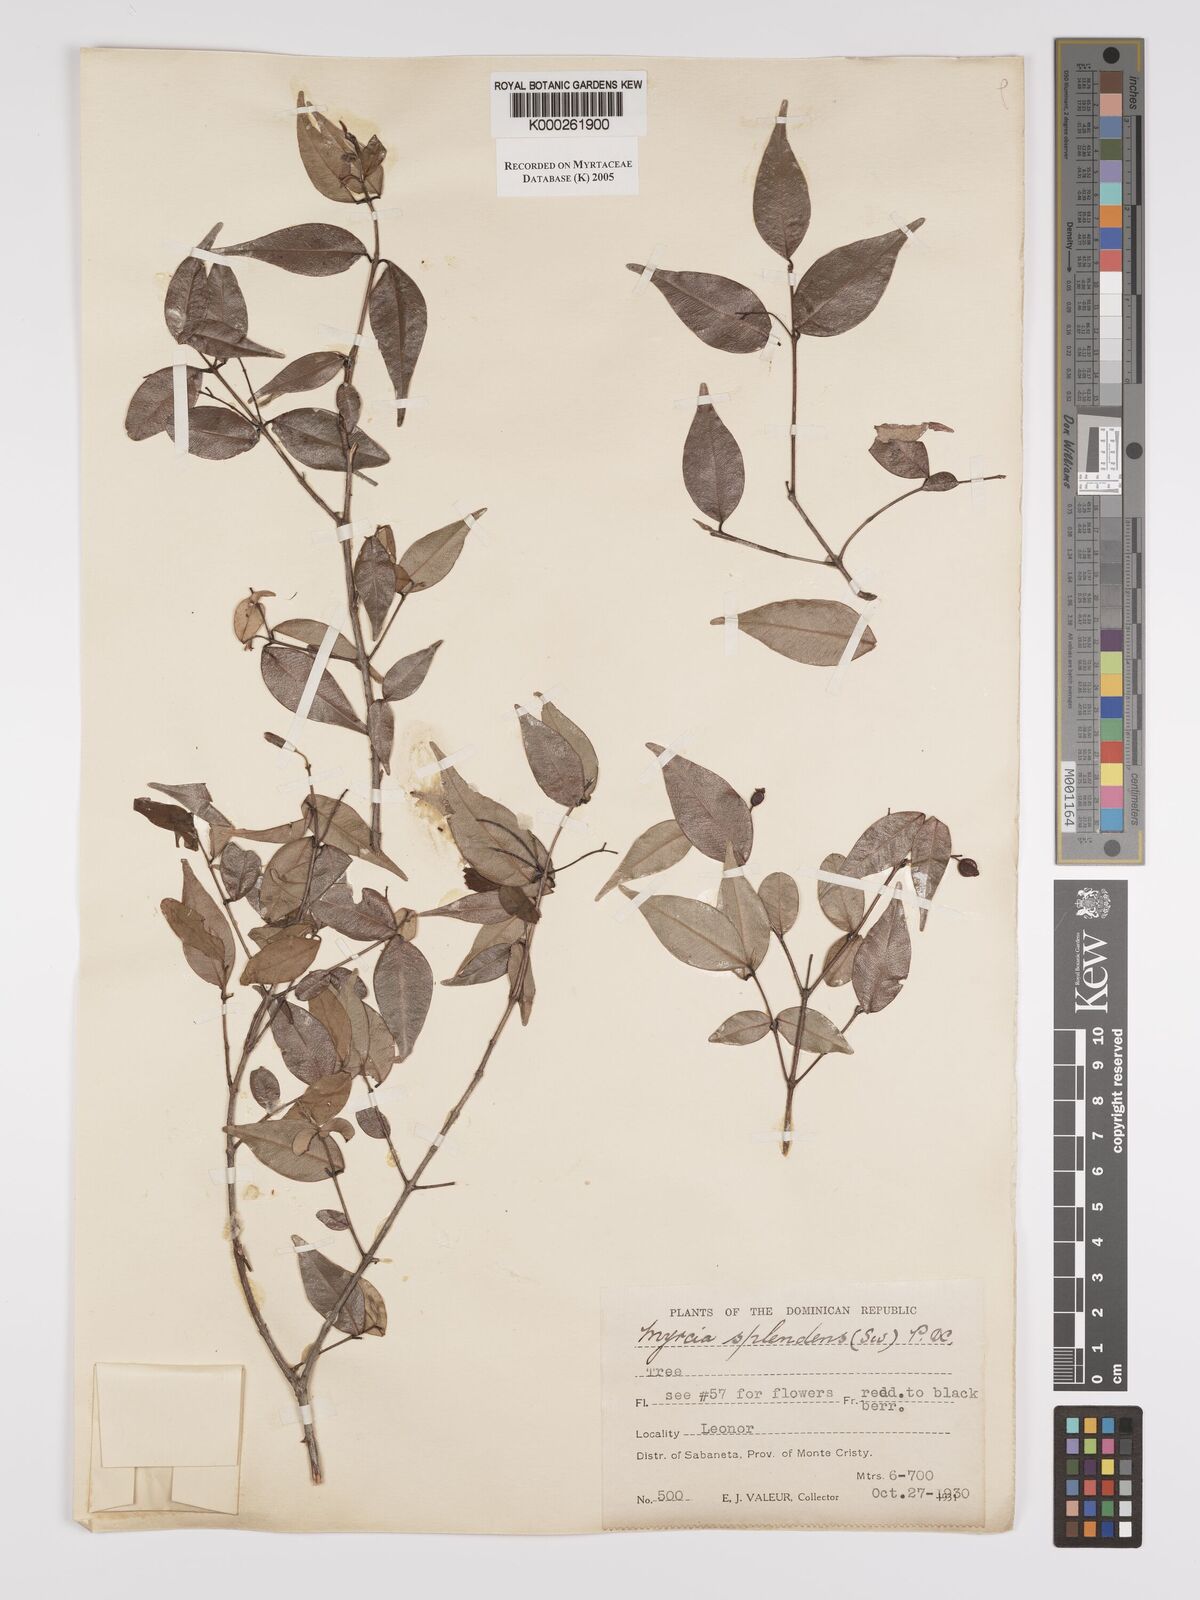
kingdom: Plantae
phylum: Tracheophyta
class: Magnoliopsida
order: Myrtales
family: Myrtaceae
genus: Myrcia
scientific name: Myrcia splendens
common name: Surinam cherry
